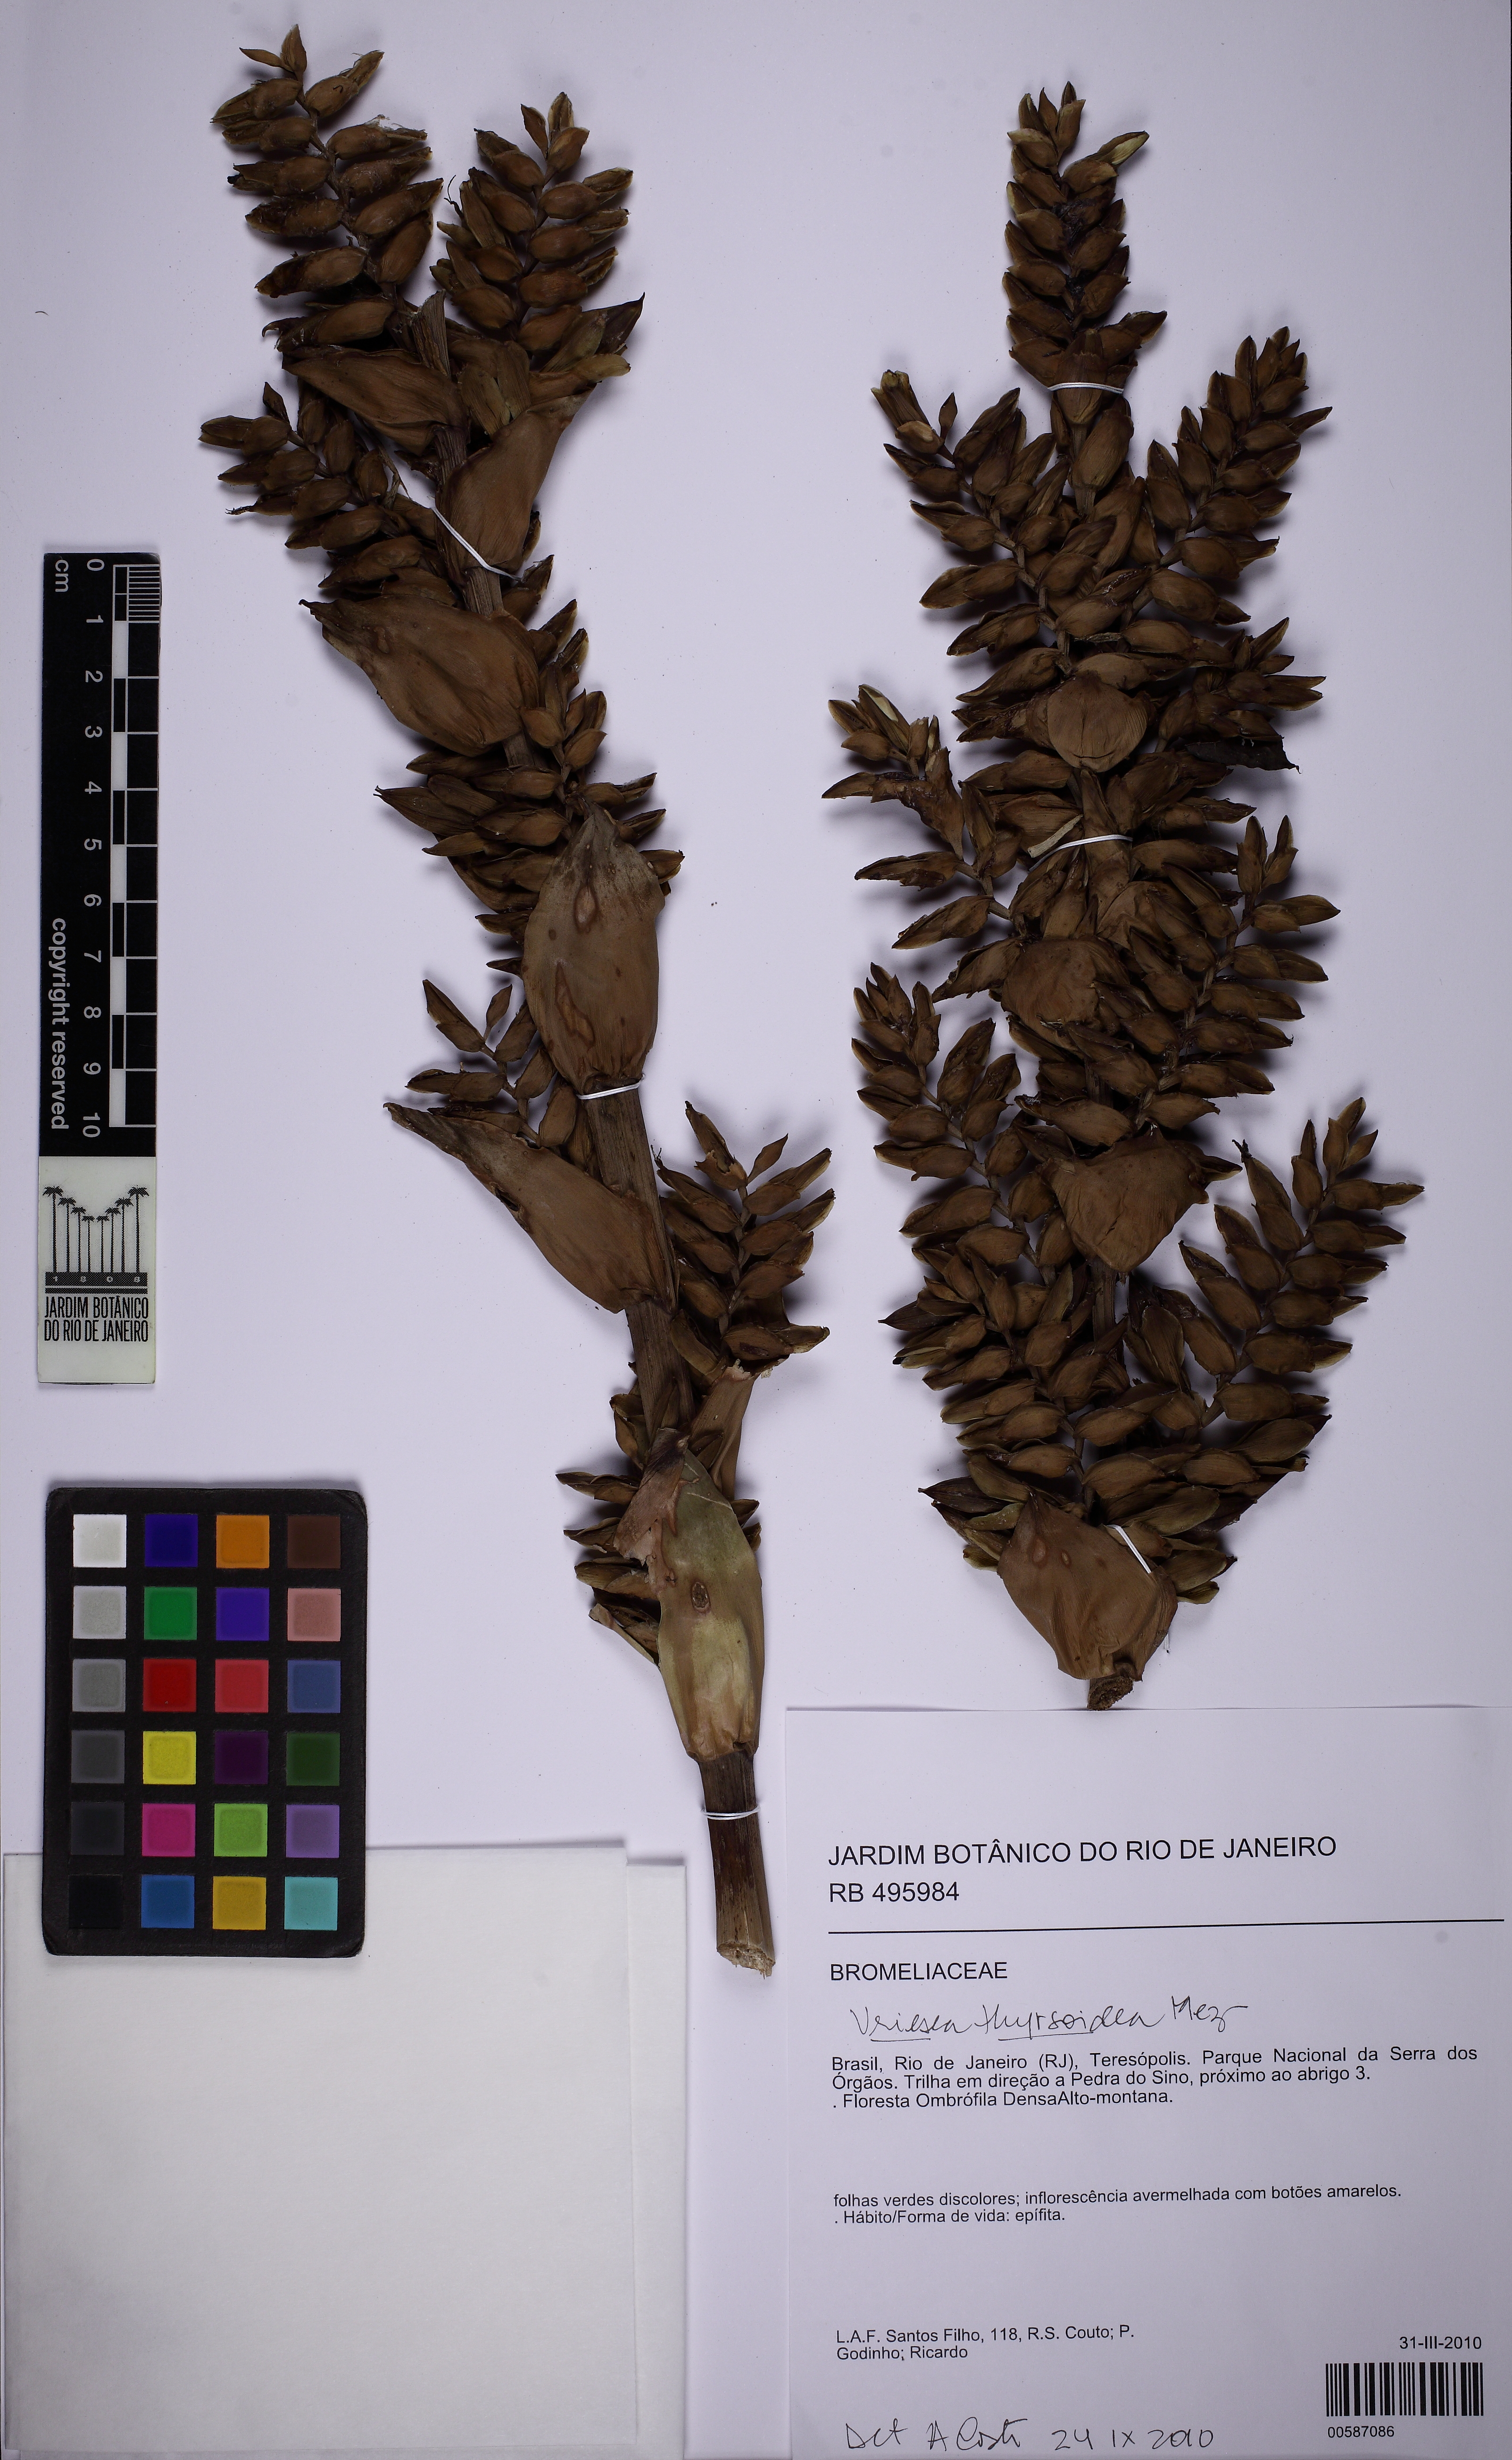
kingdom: Plantae
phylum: Tracheophyta
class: Liliopsida
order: Poales
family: Bromeliaceae
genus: Vriesea
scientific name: Vriesea thyrsoidea
